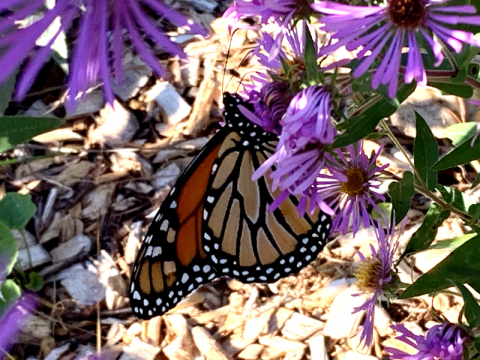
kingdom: Animalia
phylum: Arthropoda
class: Insecta
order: Lepidoptera
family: Nymphalidae
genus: Danaus
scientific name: Danaus plexippus
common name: Monarch
